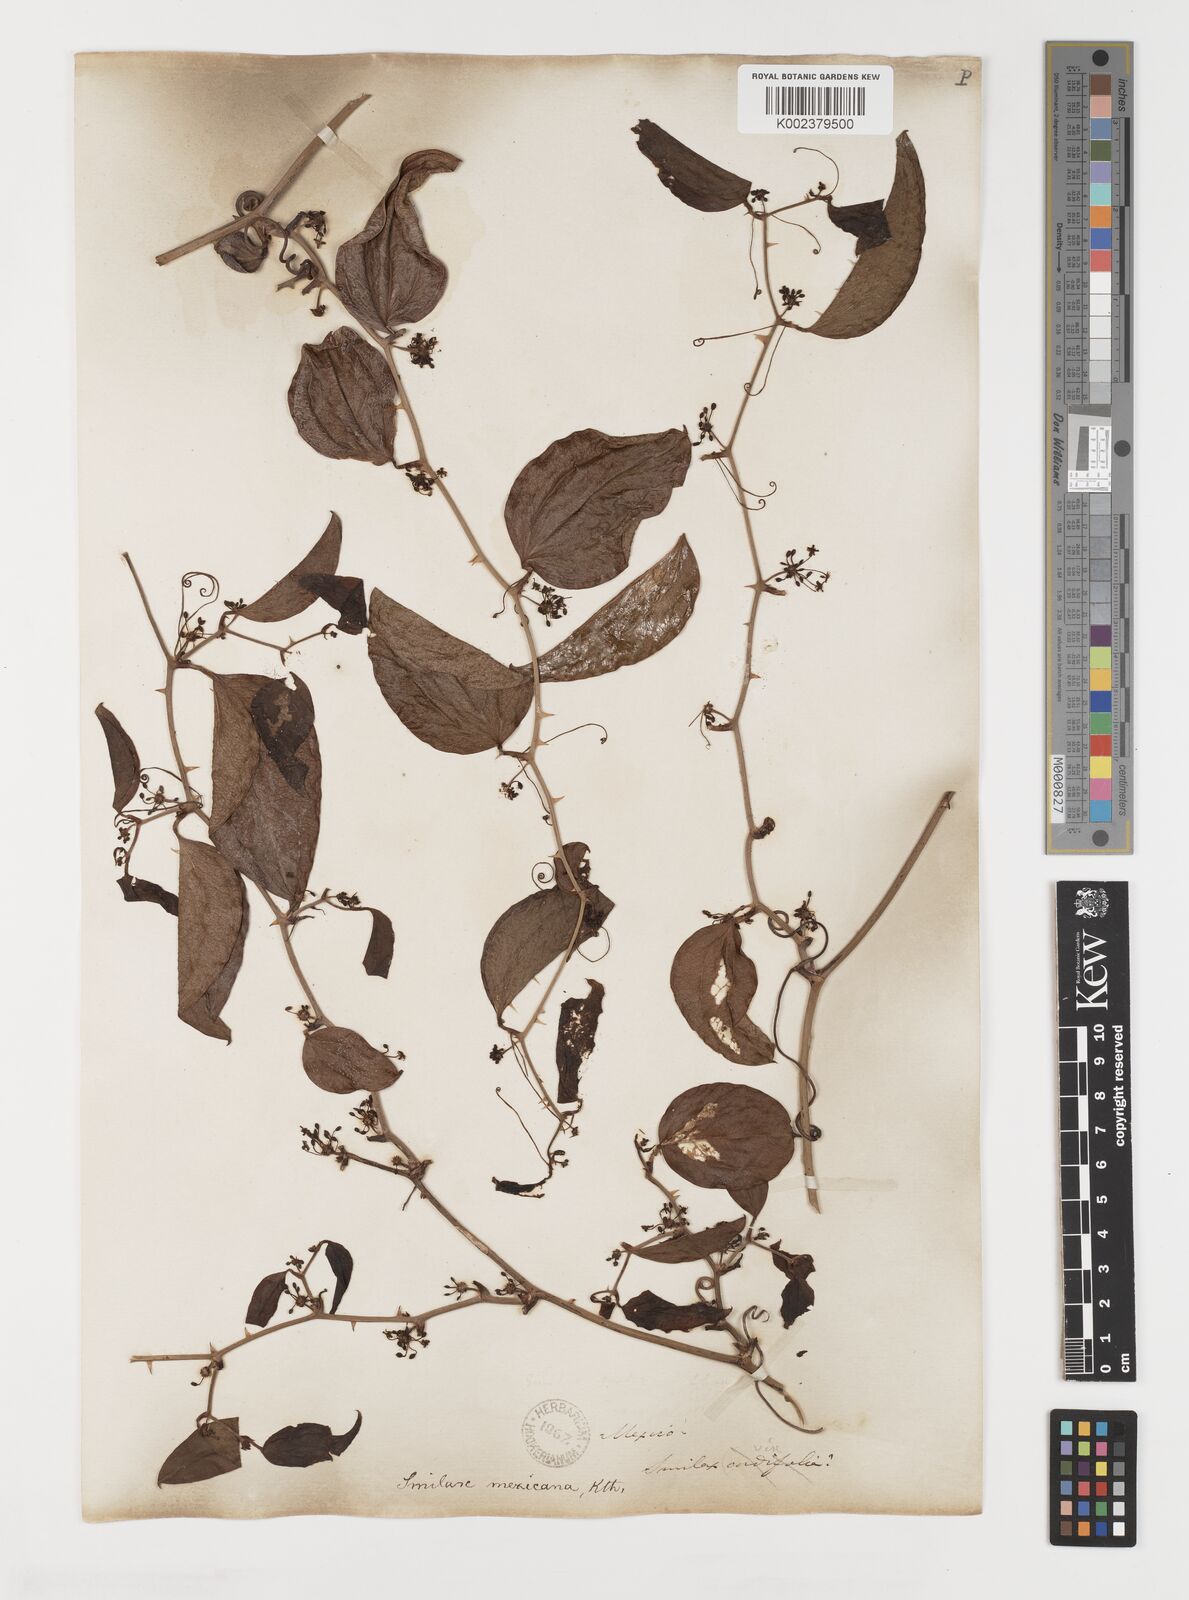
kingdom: Plantae
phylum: Tracheophyta
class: Liliopsida
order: Liliales
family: Smilacaceae
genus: Smilax
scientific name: Smilax spinosa
